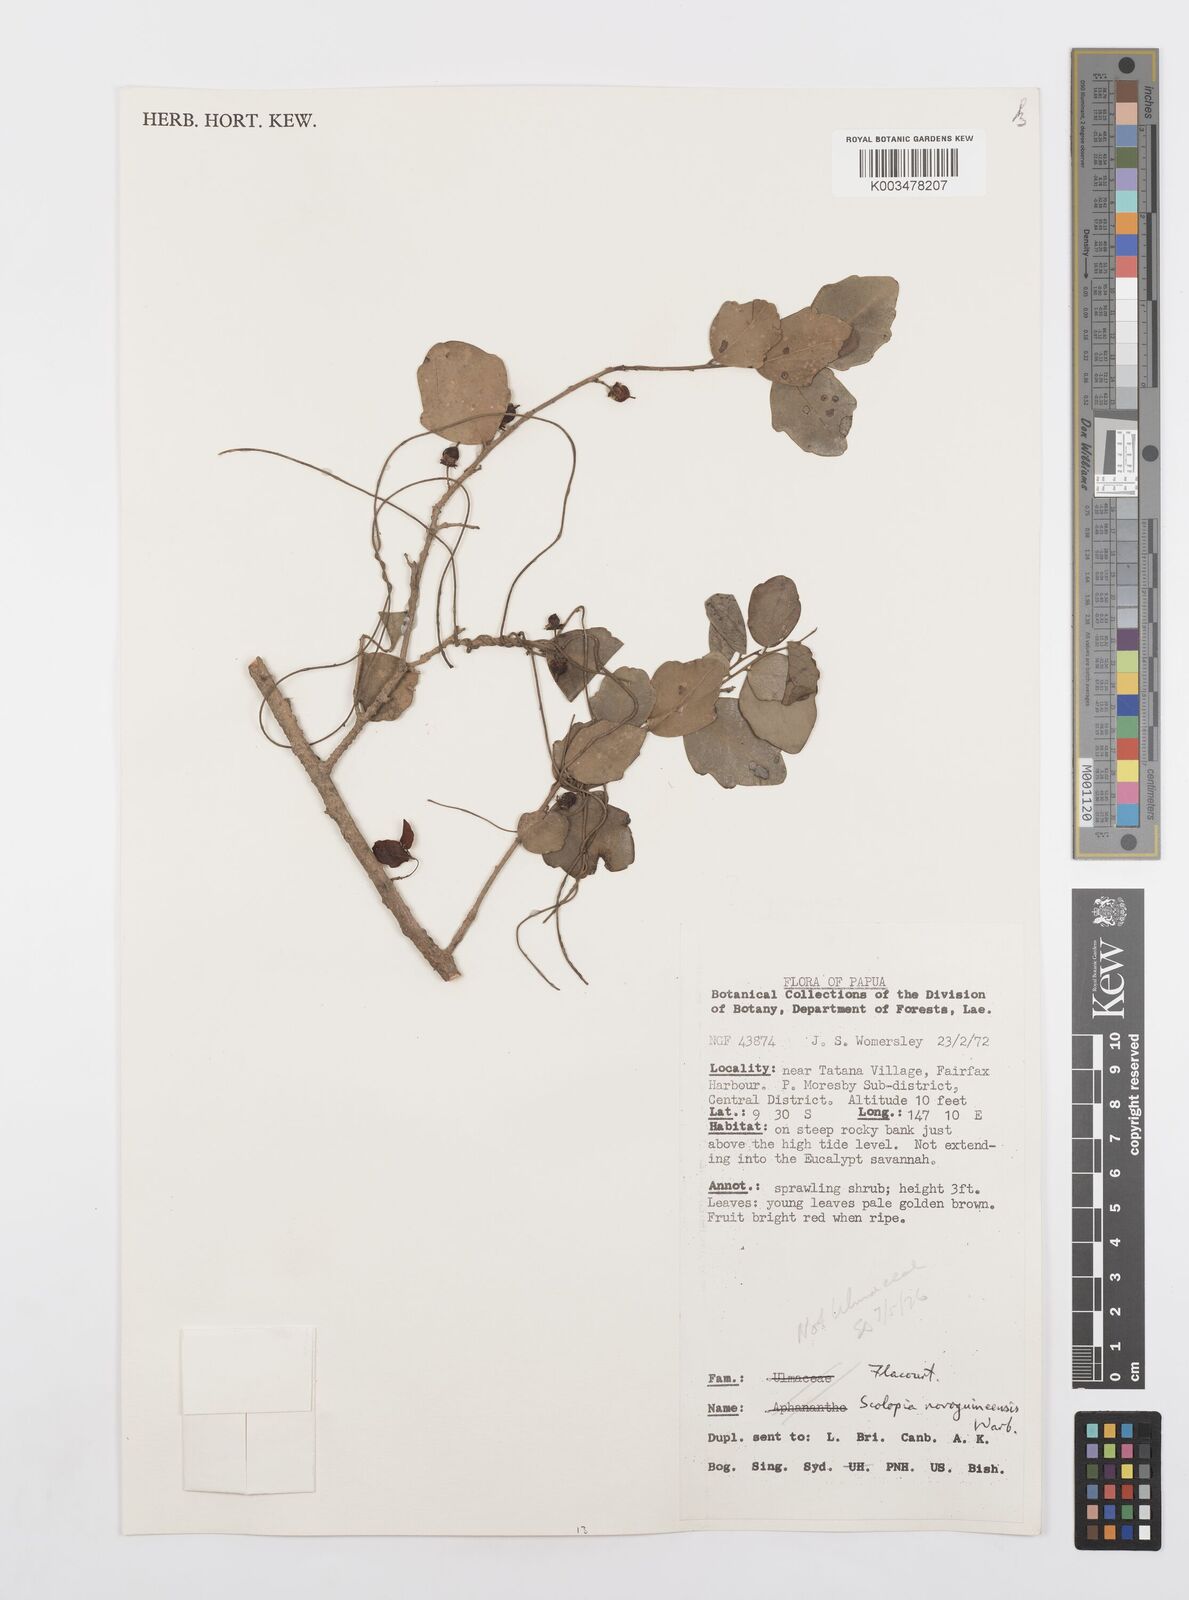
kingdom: Plantae
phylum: Tracheophyta
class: Magnoliopsida
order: Malpighiales
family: Salicaceae
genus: Scolopia
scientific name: Scolopia nitida
